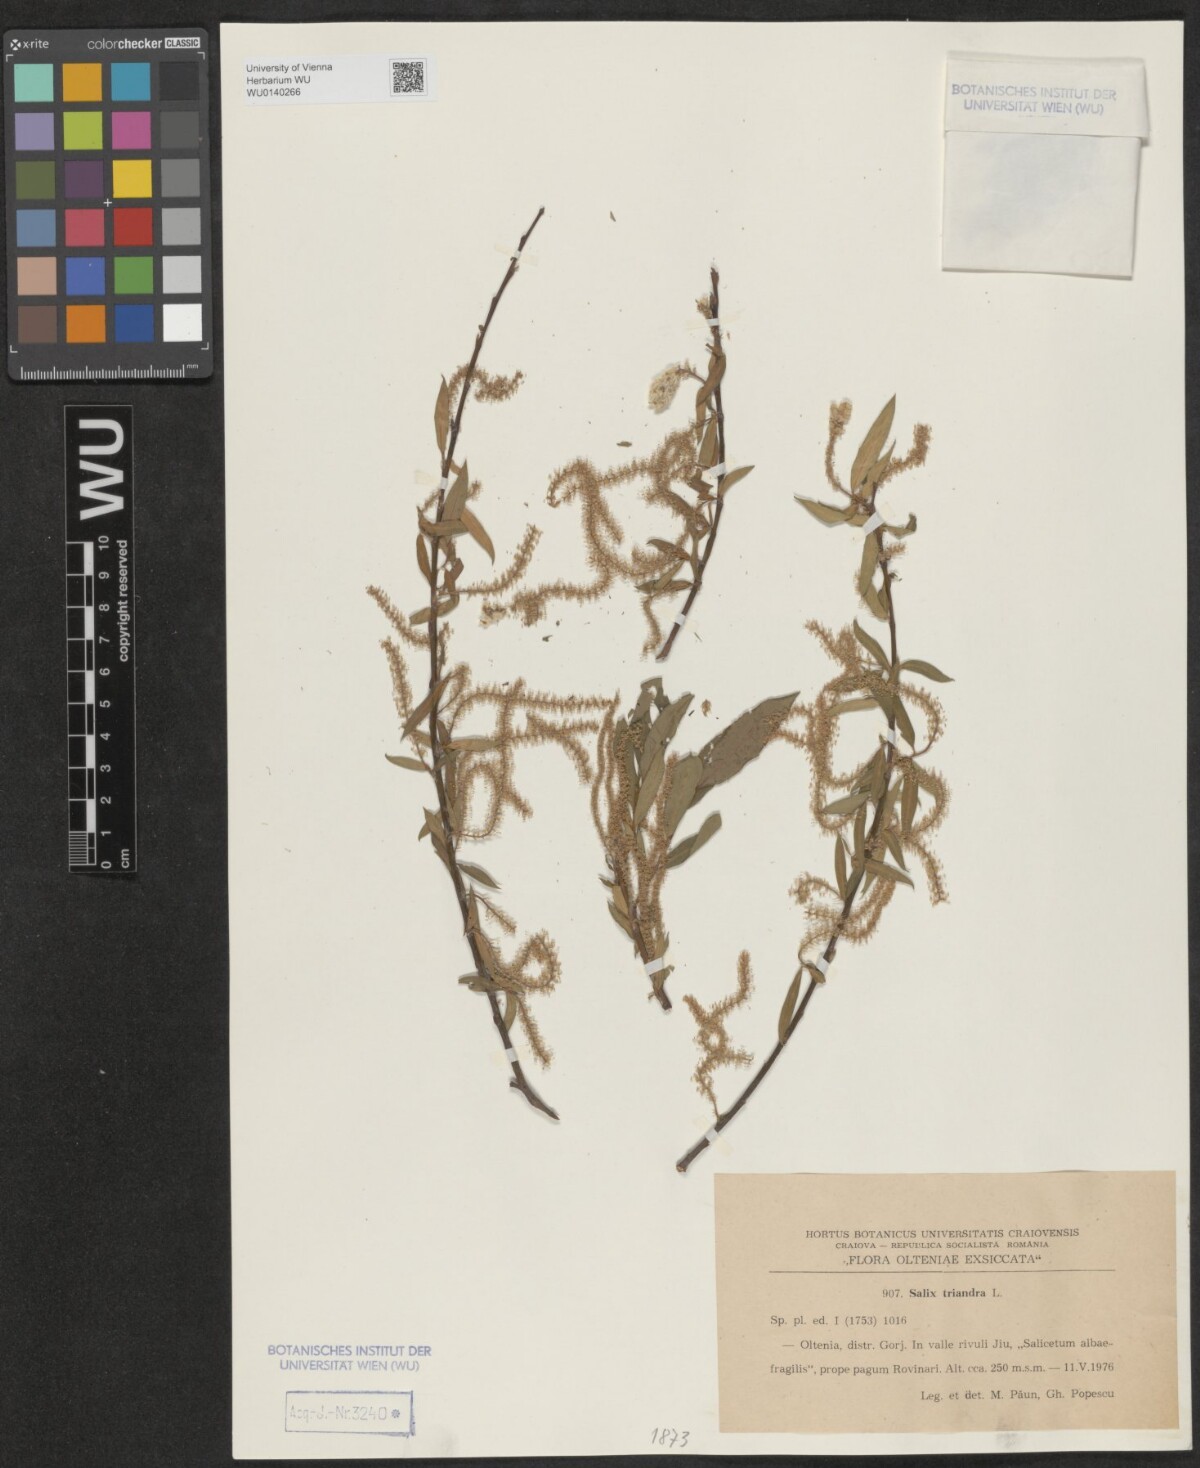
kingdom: Plantae
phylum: Tracheophyta
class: Magnoliopsida
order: Malpighiales
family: Salicaceae
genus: Salix
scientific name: Salix triandra
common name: Almond willow
